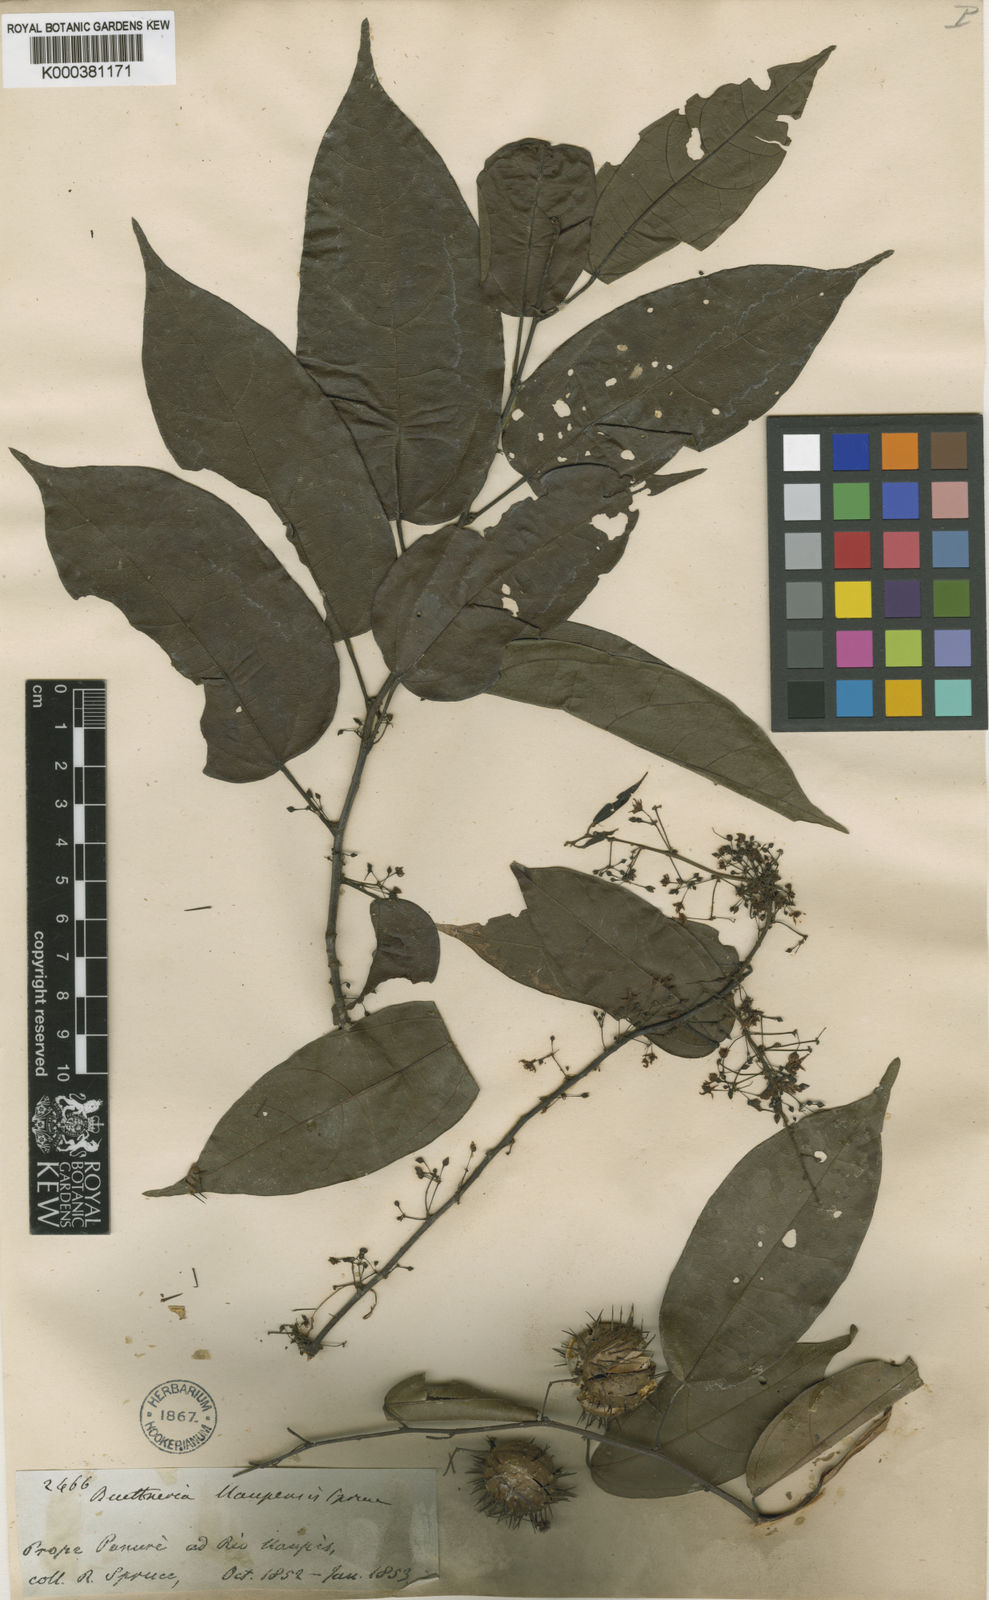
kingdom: Plantae
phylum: Tracheophyta
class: Magnoliopsida
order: Malvales
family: Malvaceae
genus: Byttneria
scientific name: Byttneria uaupensis
